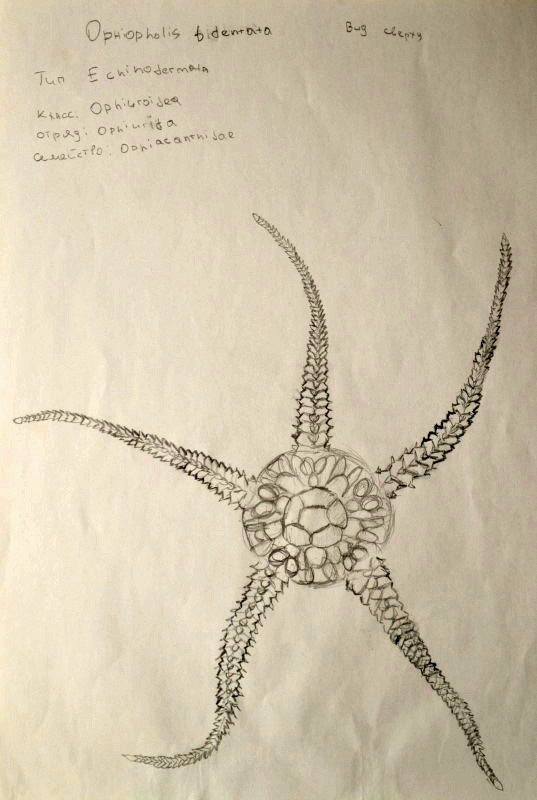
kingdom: Animalia
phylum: Echinodermata
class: Ophiuroidea
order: Amphilepidida
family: Ophiopholidae
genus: Ophiopholis
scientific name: Ophiopholis aculeata
